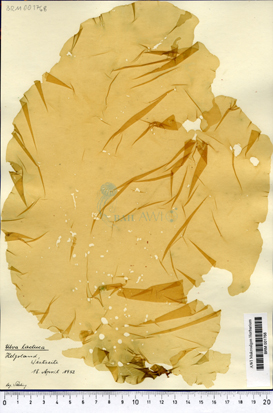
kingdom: Plantae
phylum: Chlorophyta
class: Ulvophyceae
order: Ulvales
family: Ulvaceae
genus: Ulva
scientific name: Ulva lactuca
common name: Sea lettuce
